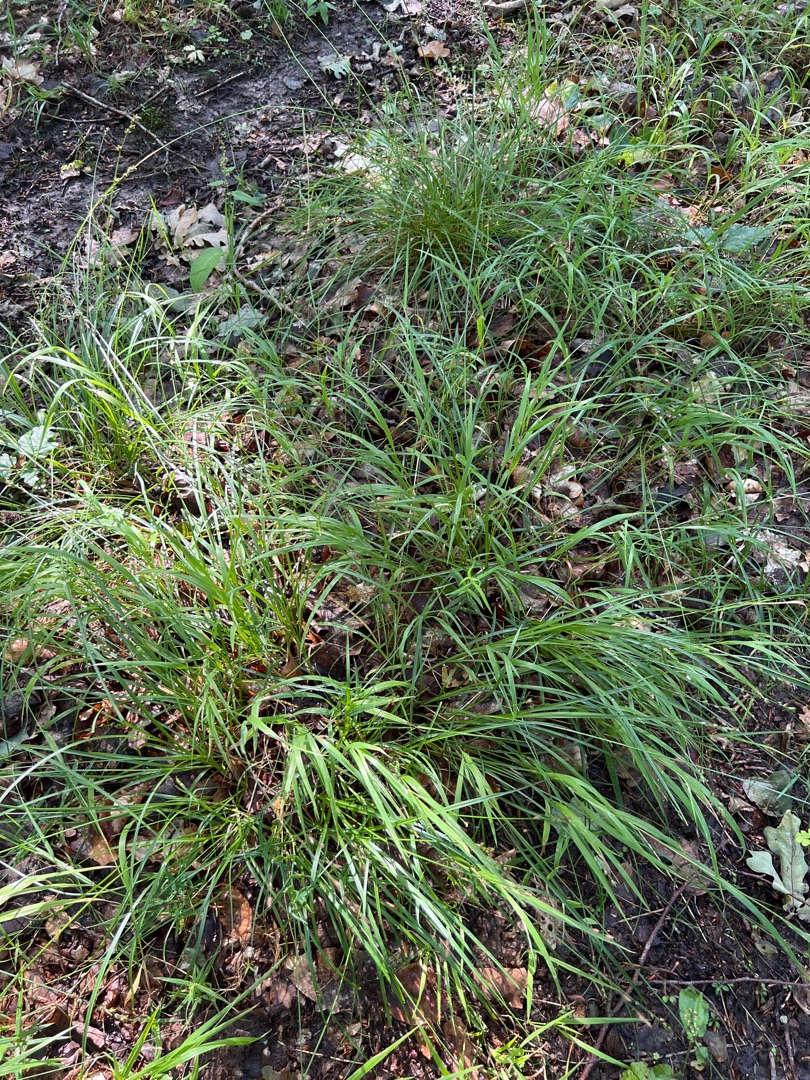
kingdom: Plantae
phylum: Tracheophyta
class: Liliopsida
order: Poales
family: Cyperaceae
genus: Carex
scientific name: Carex leersii
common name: Mellembrudt star (underart)
